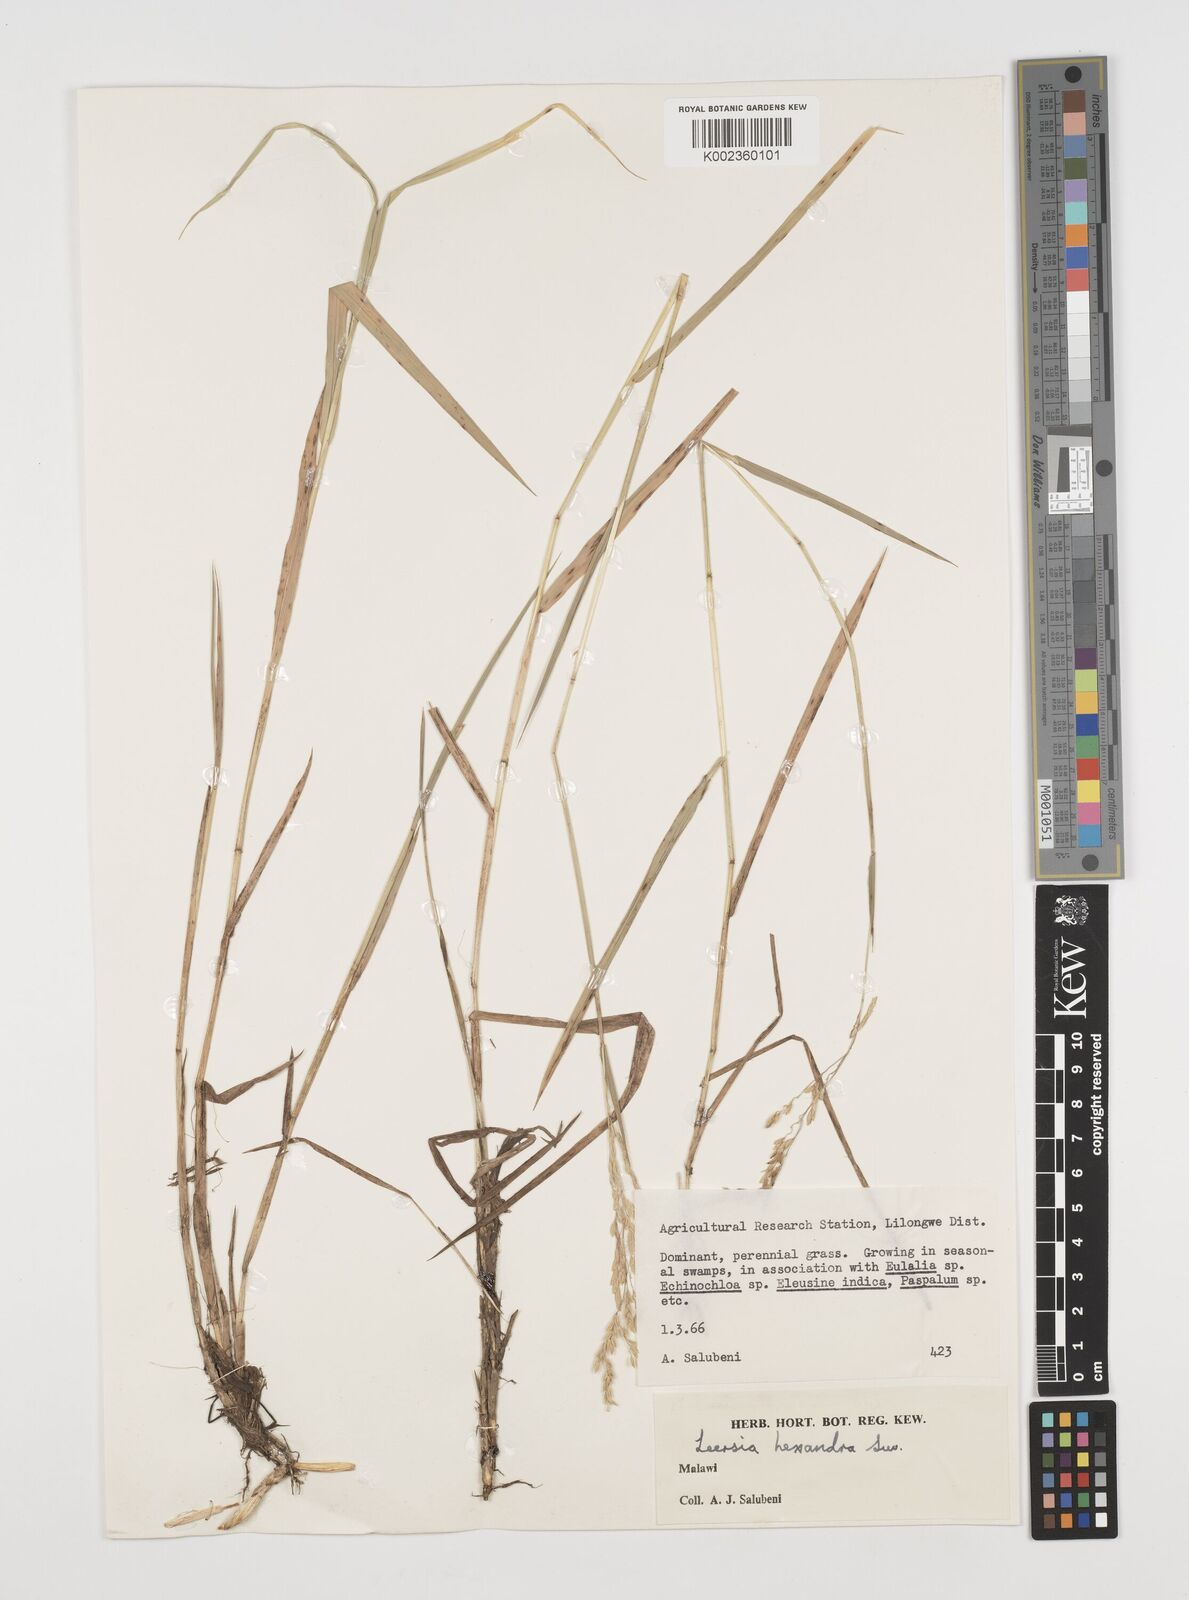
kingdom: Plantae
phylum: Tracheophyta
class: Liliopsida
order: Poales
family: Poaceae
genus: Leersia
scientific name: Leersia hexandra
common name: Southern cut grass
